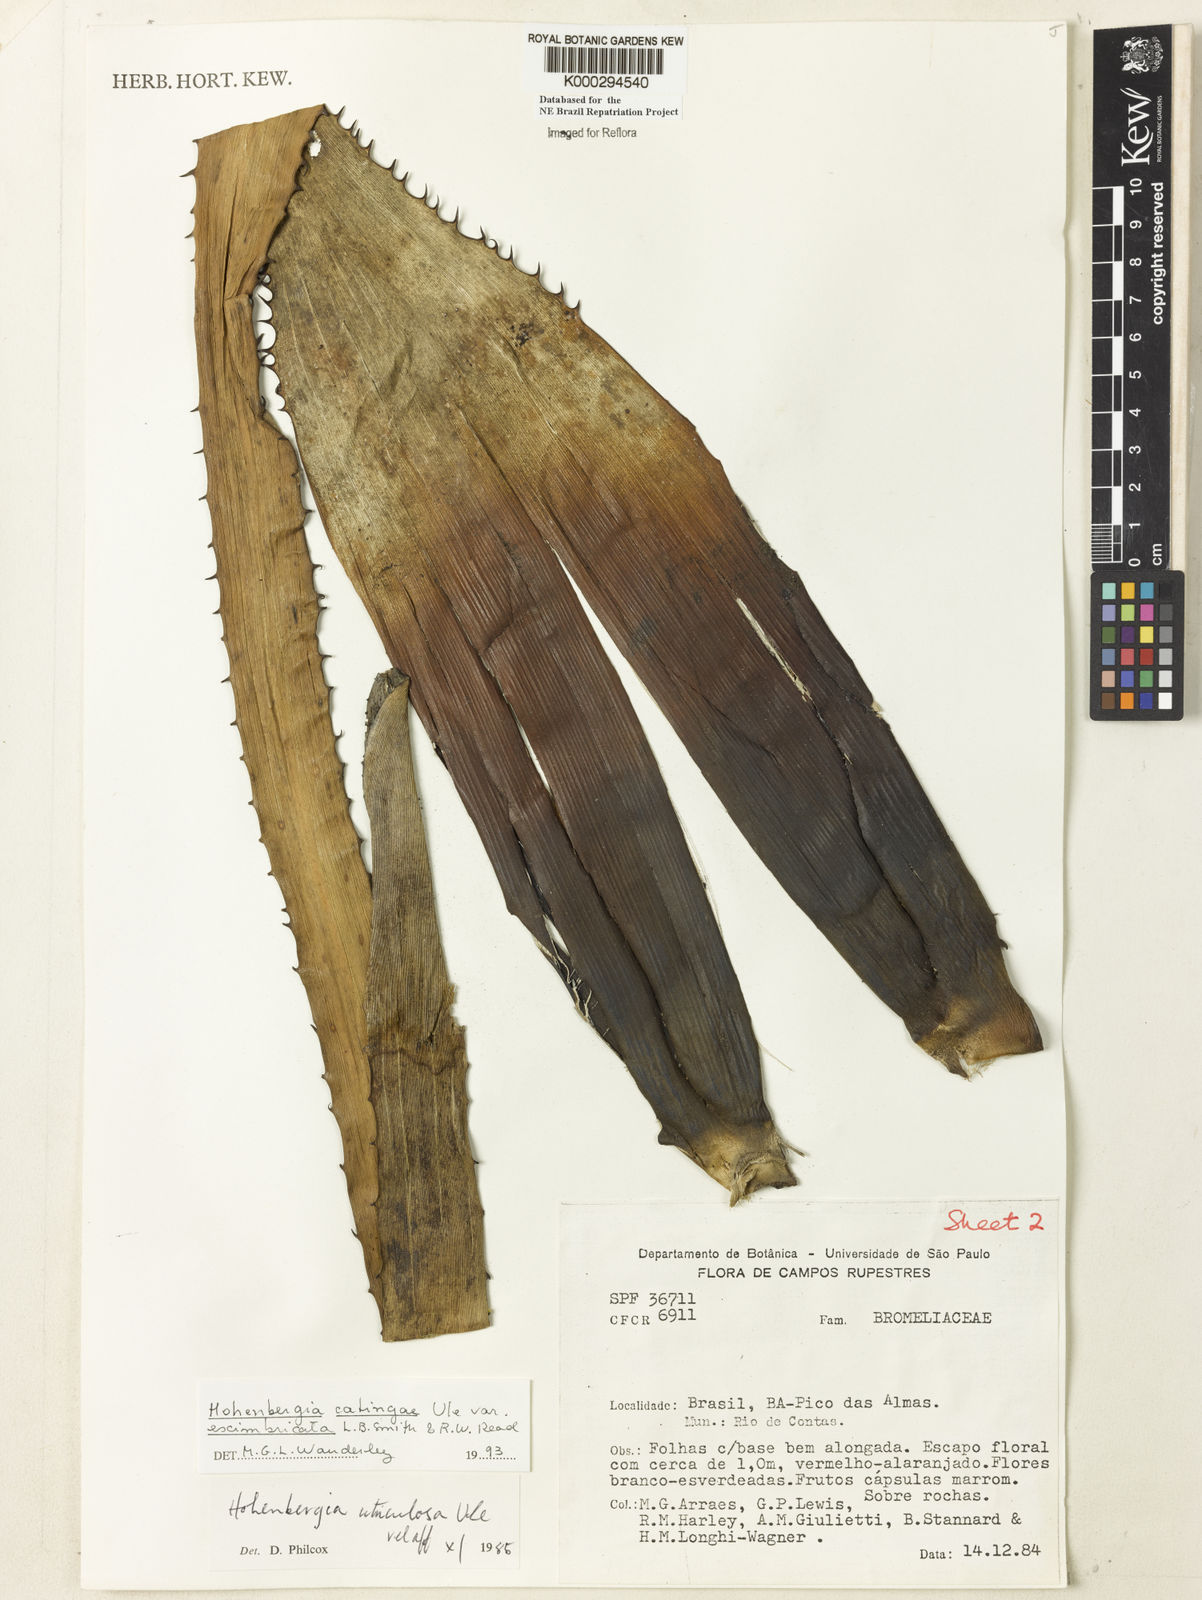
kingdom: Plantae
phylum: Tracheophyta
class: Liliopsida
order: Poales
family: Bromeliaceae
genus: Hohenbergia
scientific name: Hohenbergia catingae
